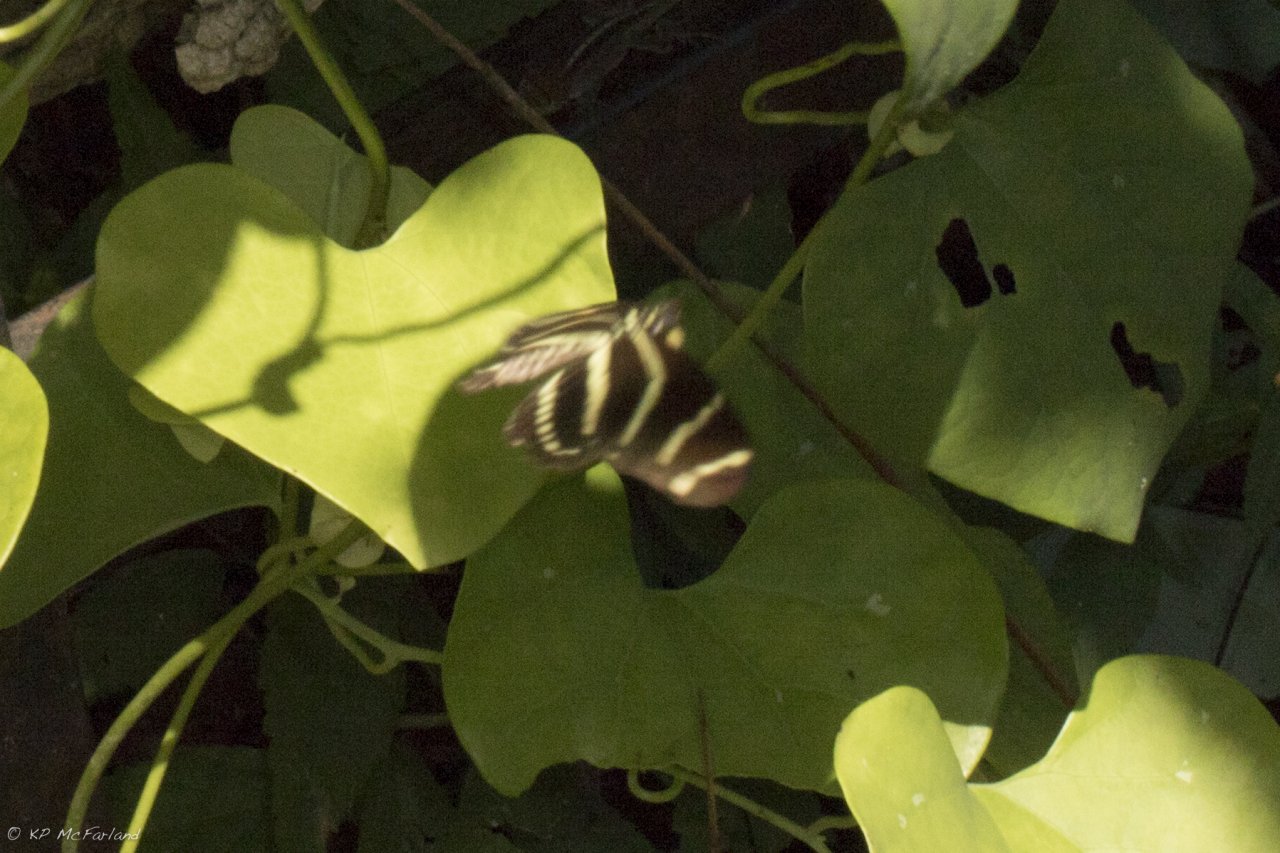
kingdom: Animalia
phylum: Arthropoda
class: Insecta
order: Lepidoptera
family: Nymphalidae
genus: Heliconius
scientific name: Heliconius charithonia
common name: Zebra Longwing
